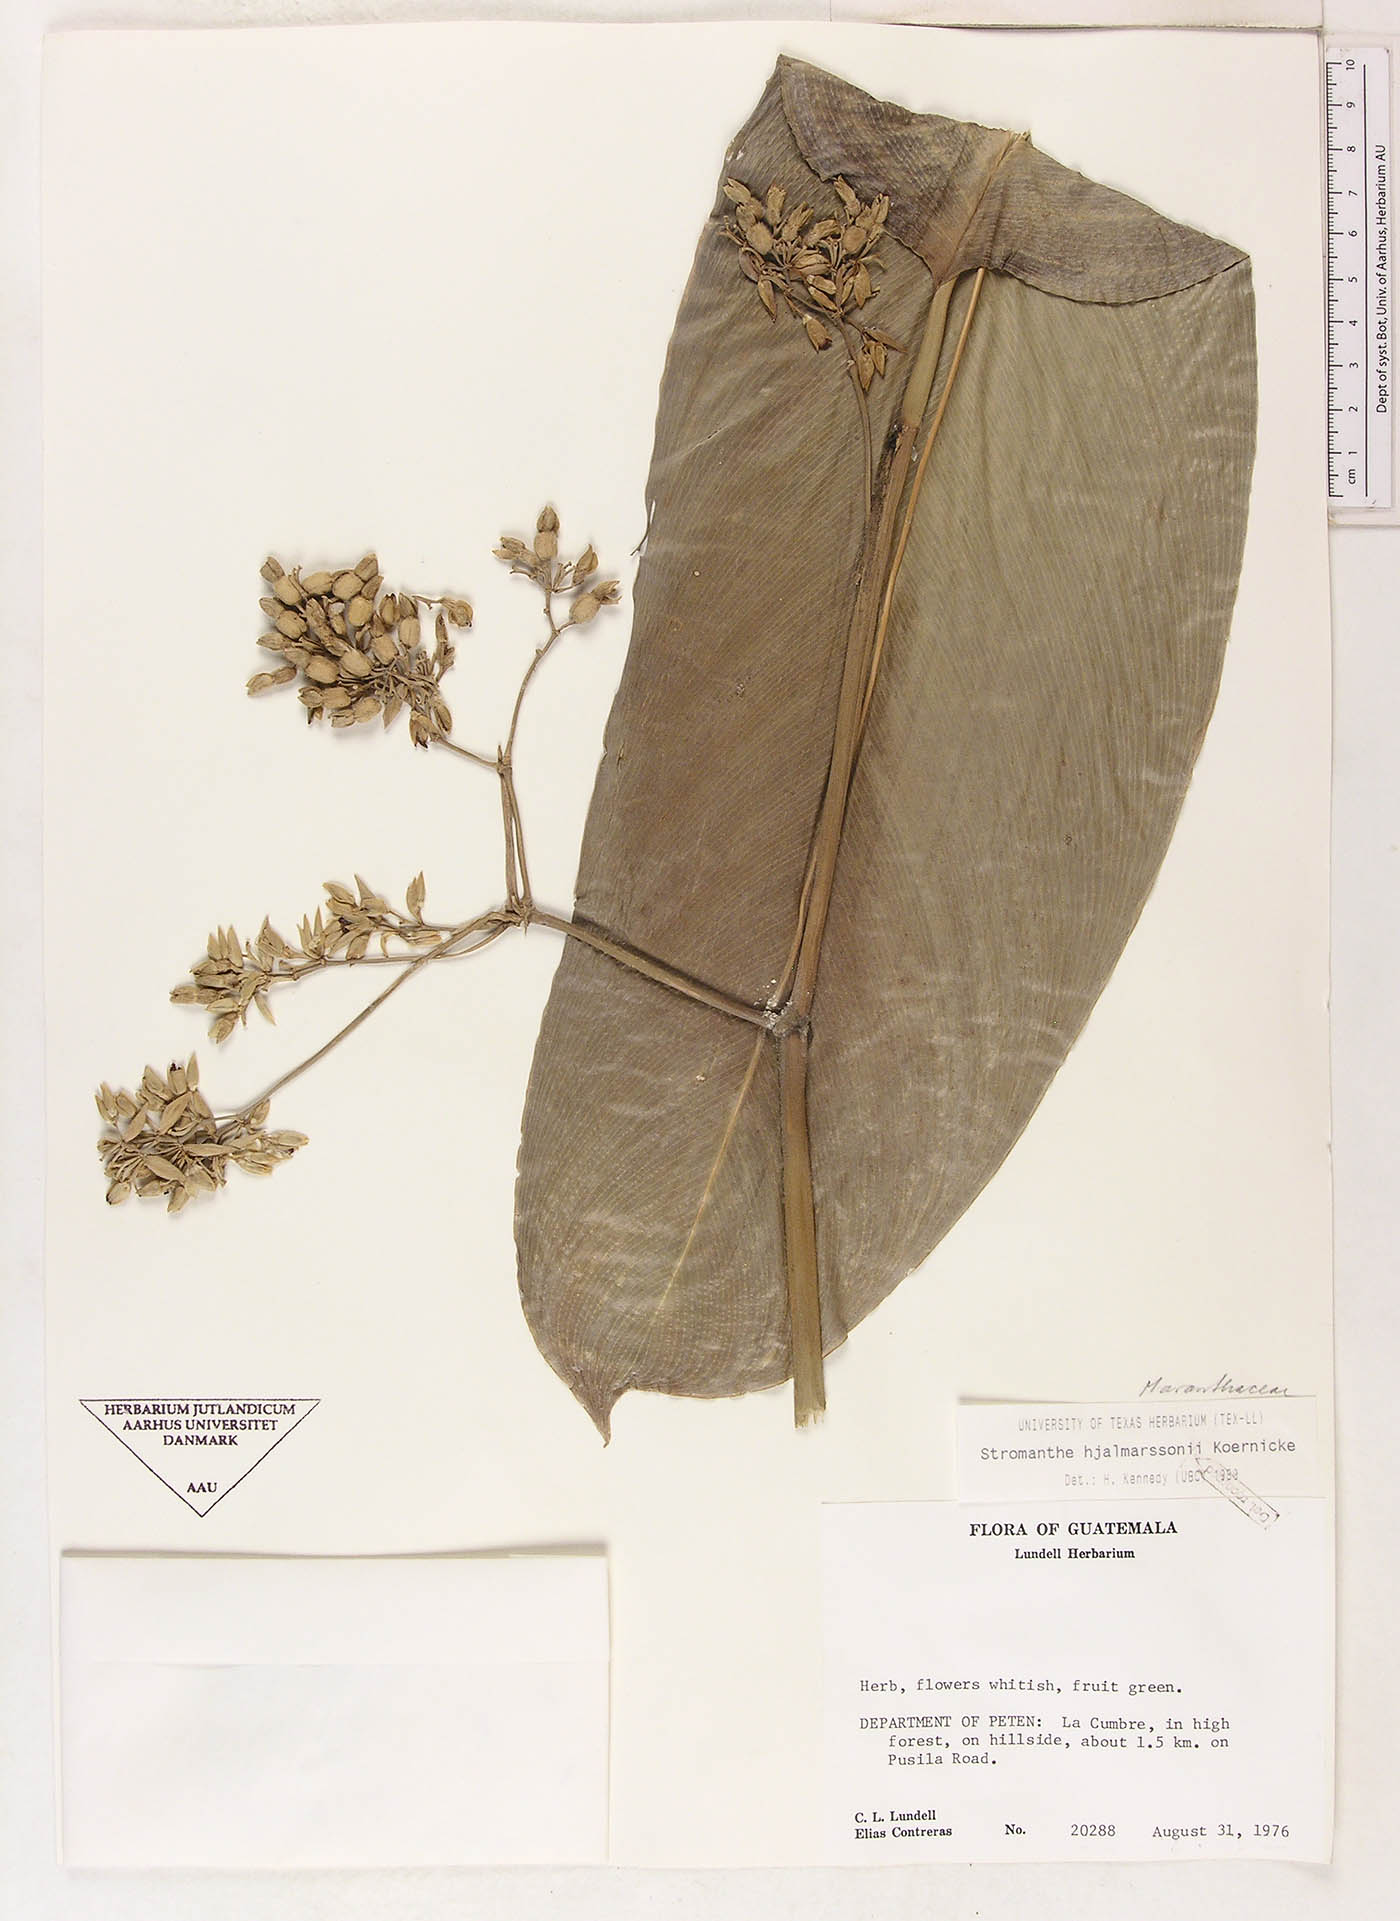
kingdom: Plantae
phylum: Tracheophyta
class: Liliopsida
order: Zingiberales
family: Marantaceae
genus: Stromanthe
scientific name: Stromanthe hjalmarssonii
